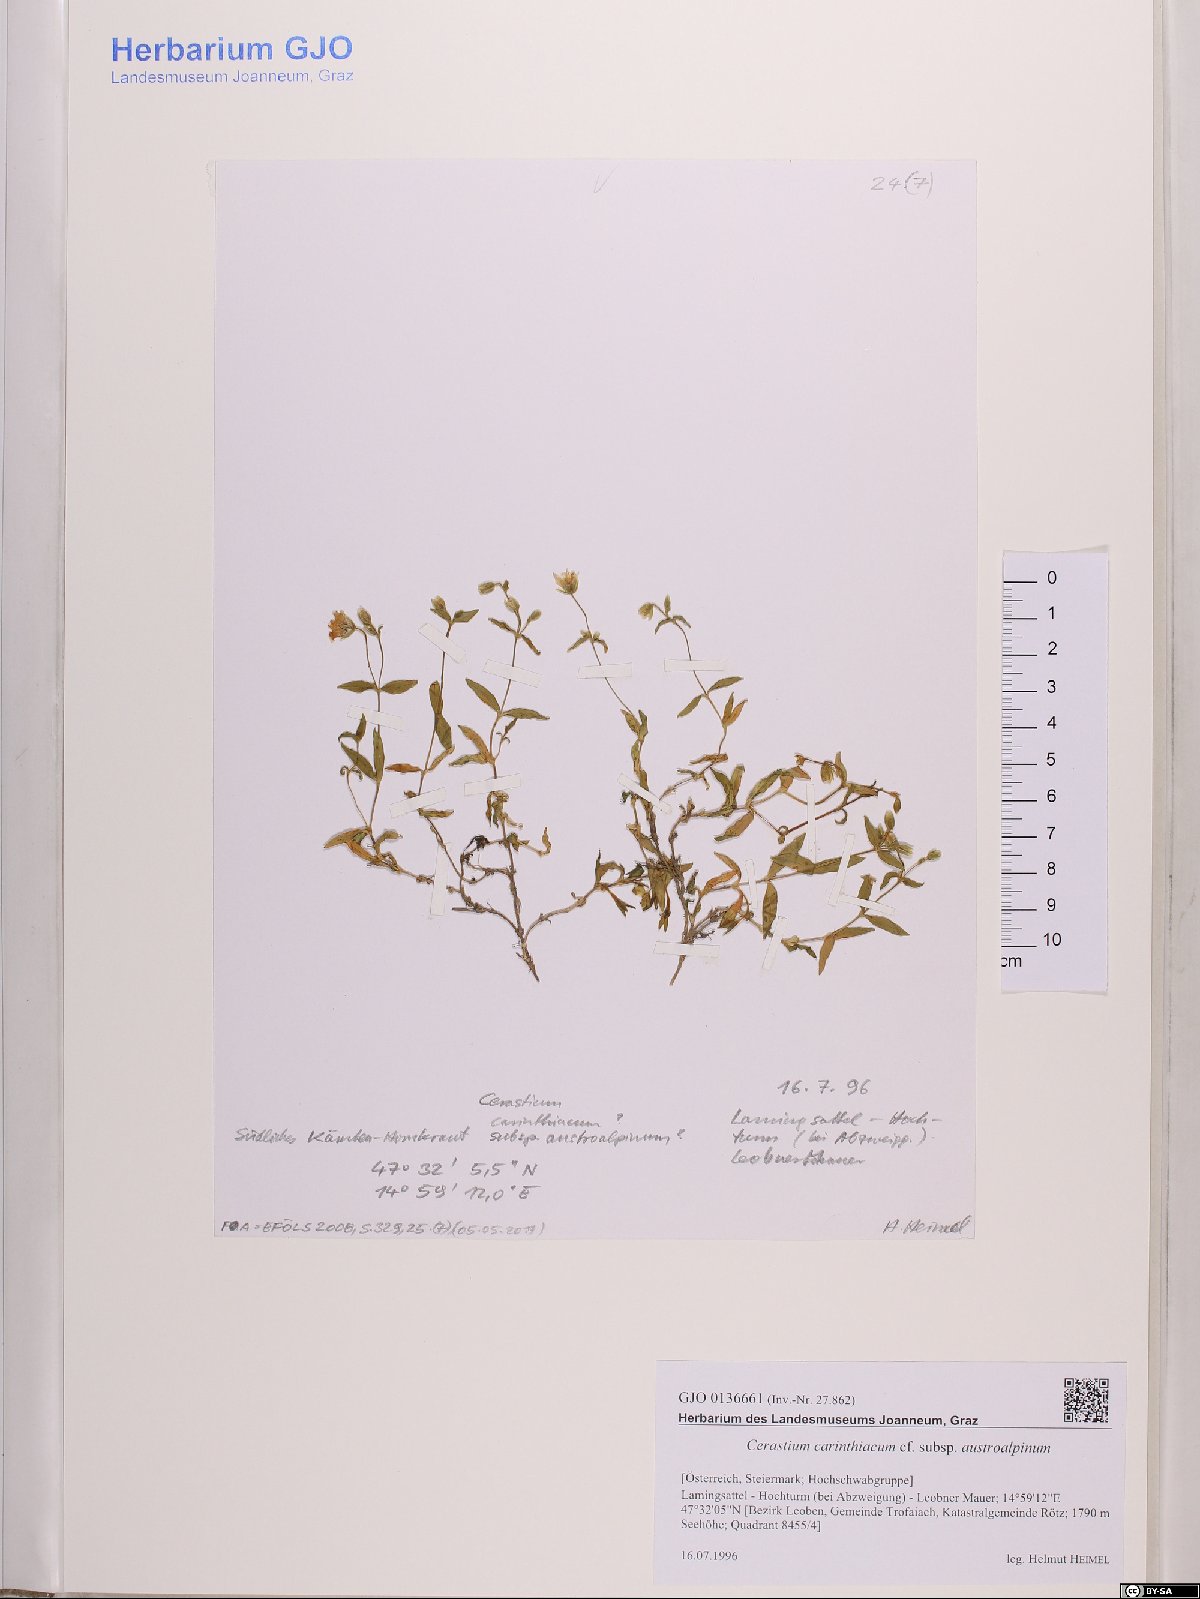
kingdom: Plantae
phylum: Tracheophyta
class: Magnoliopsida
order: Caryophyllales
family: Caryophyllaceae
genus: Cerastium
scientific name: Cerastium carinthiacum
